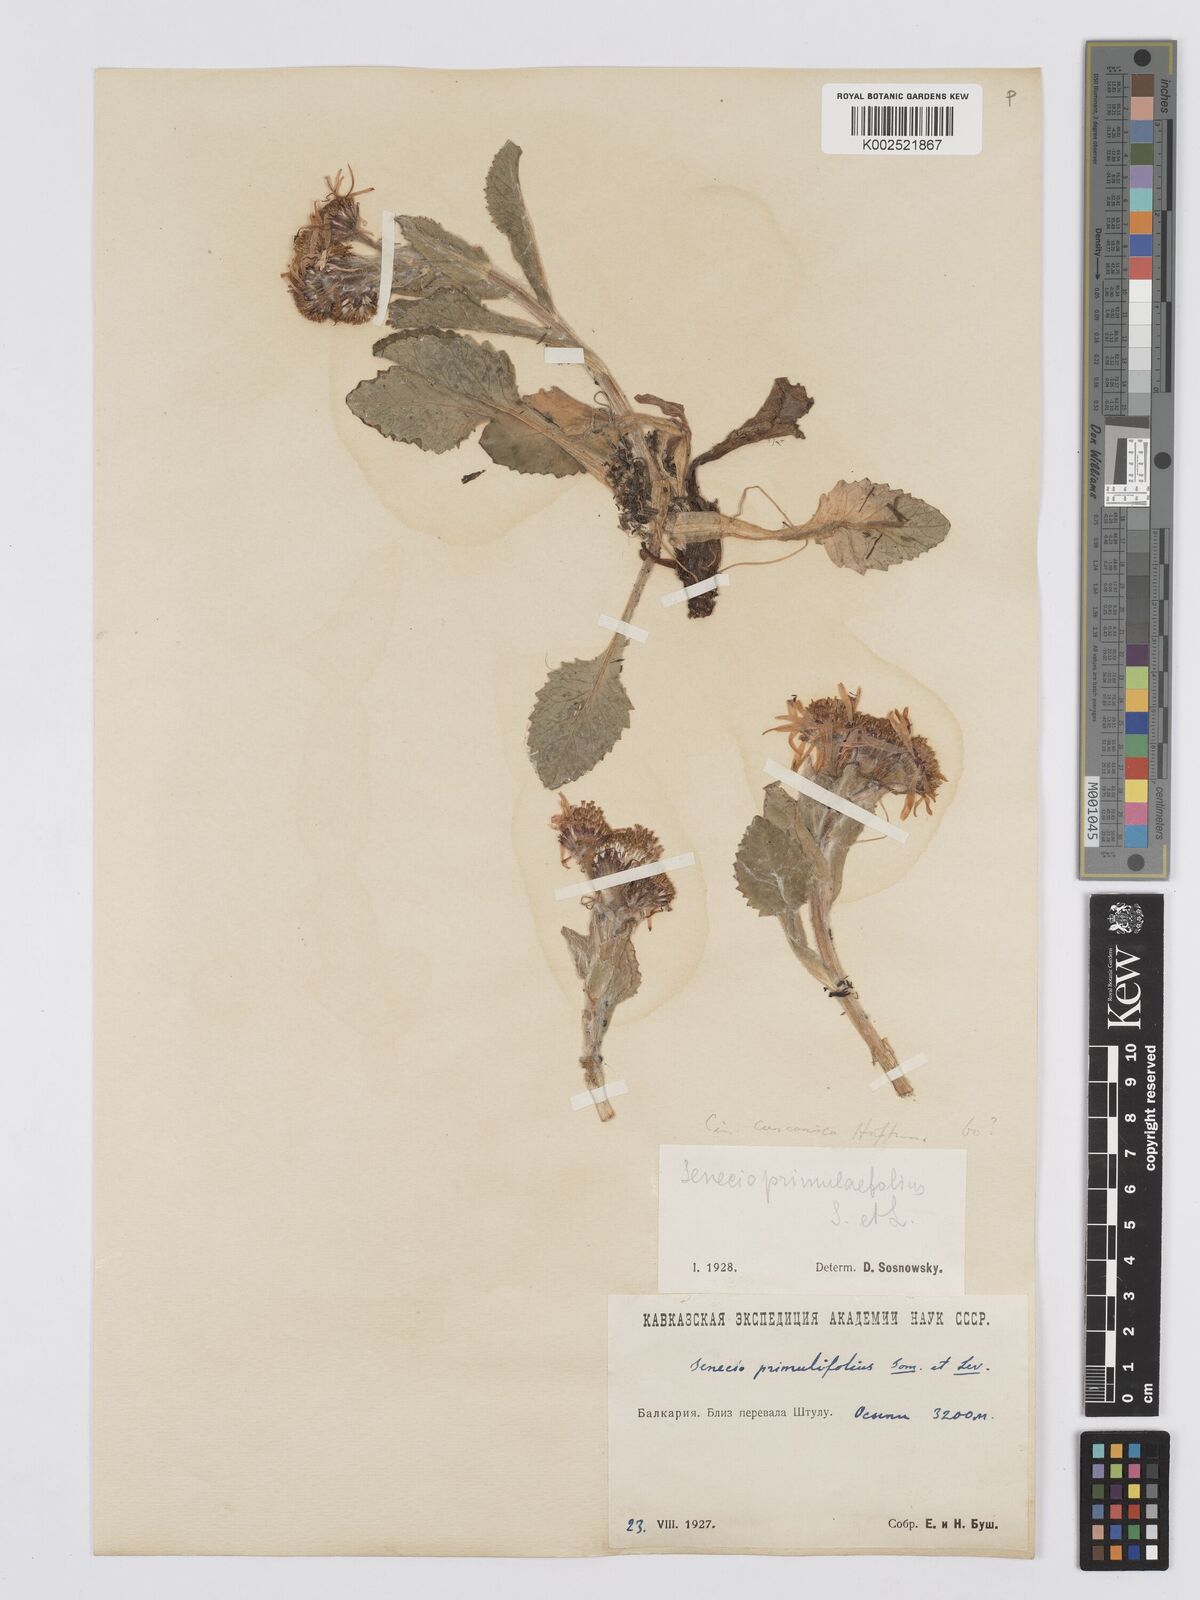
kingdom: Plantae
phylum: Tracheophyta
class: Magnoliopsida
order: Asterales
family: Asteraceae
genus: Tephroseris
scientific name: Tephroseris integrifolia
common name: Field fleawort
